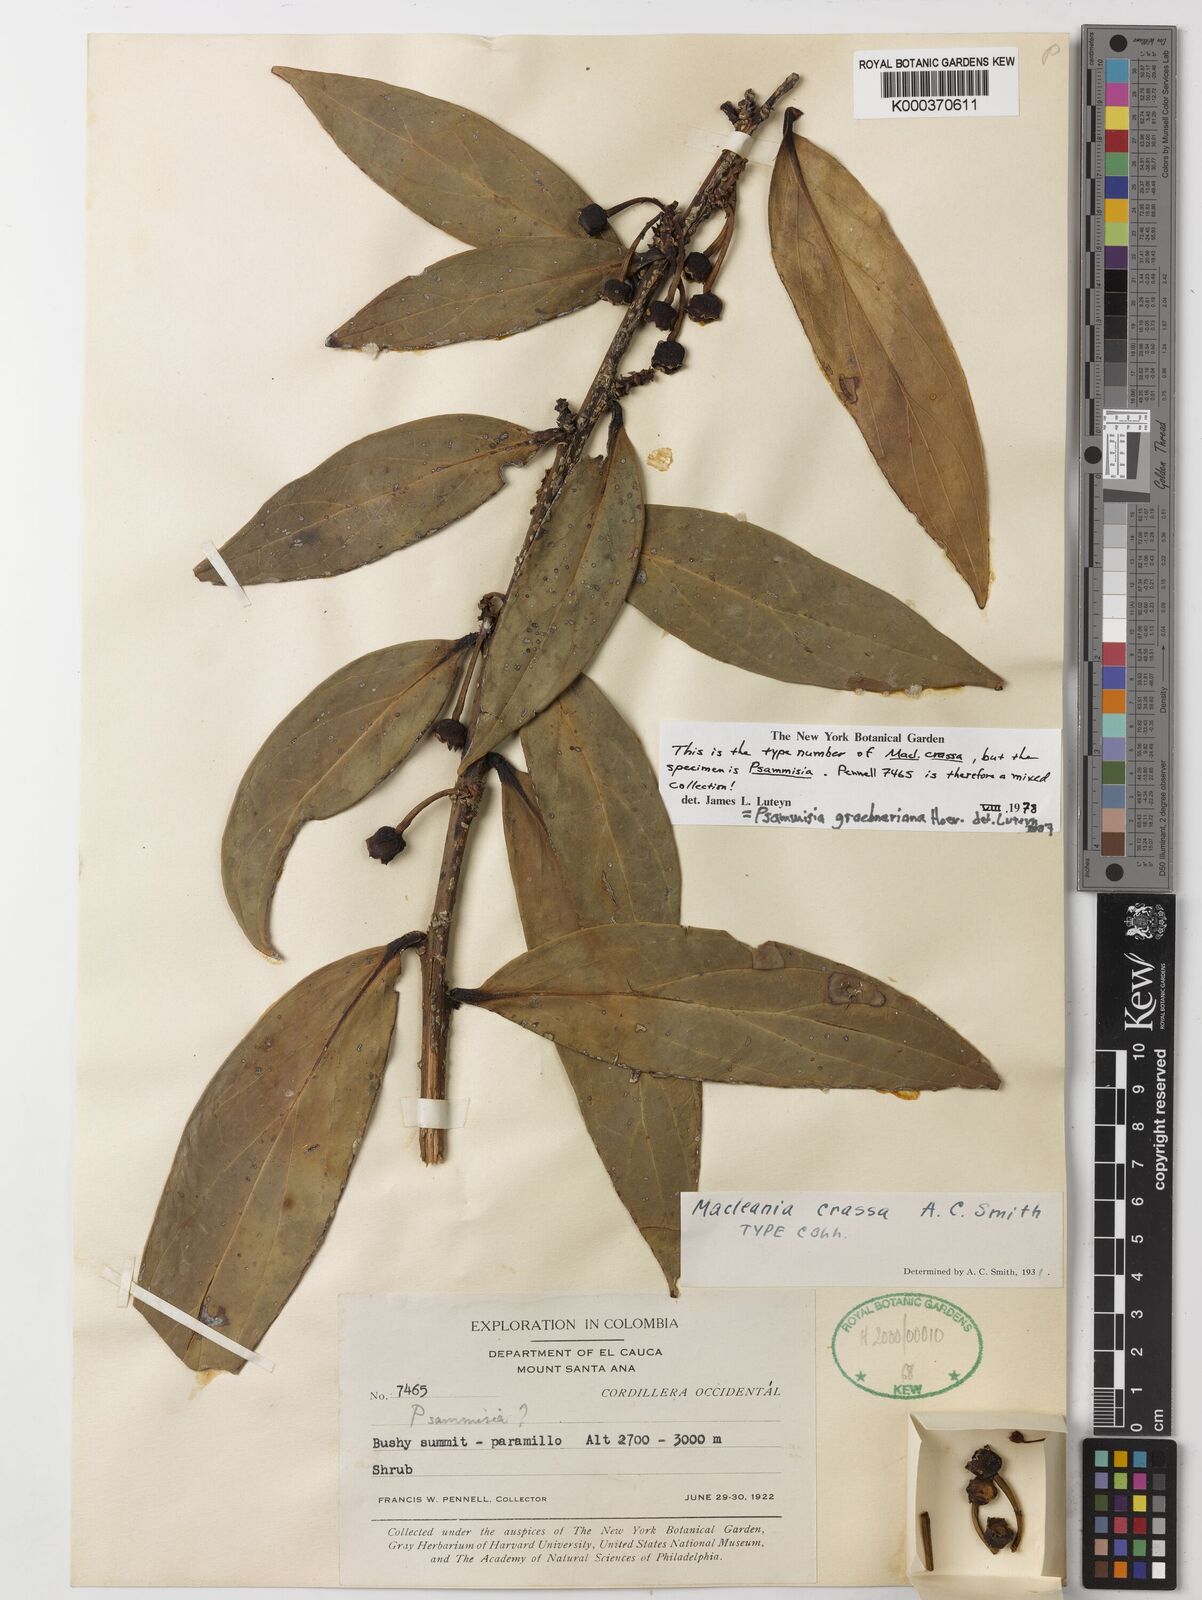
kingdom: Plantae
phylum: Tracheophyta
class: Magnoliopsida
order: Ericales
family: Ericaceae
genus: Psammisia
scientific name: Psammisia graebneriana
